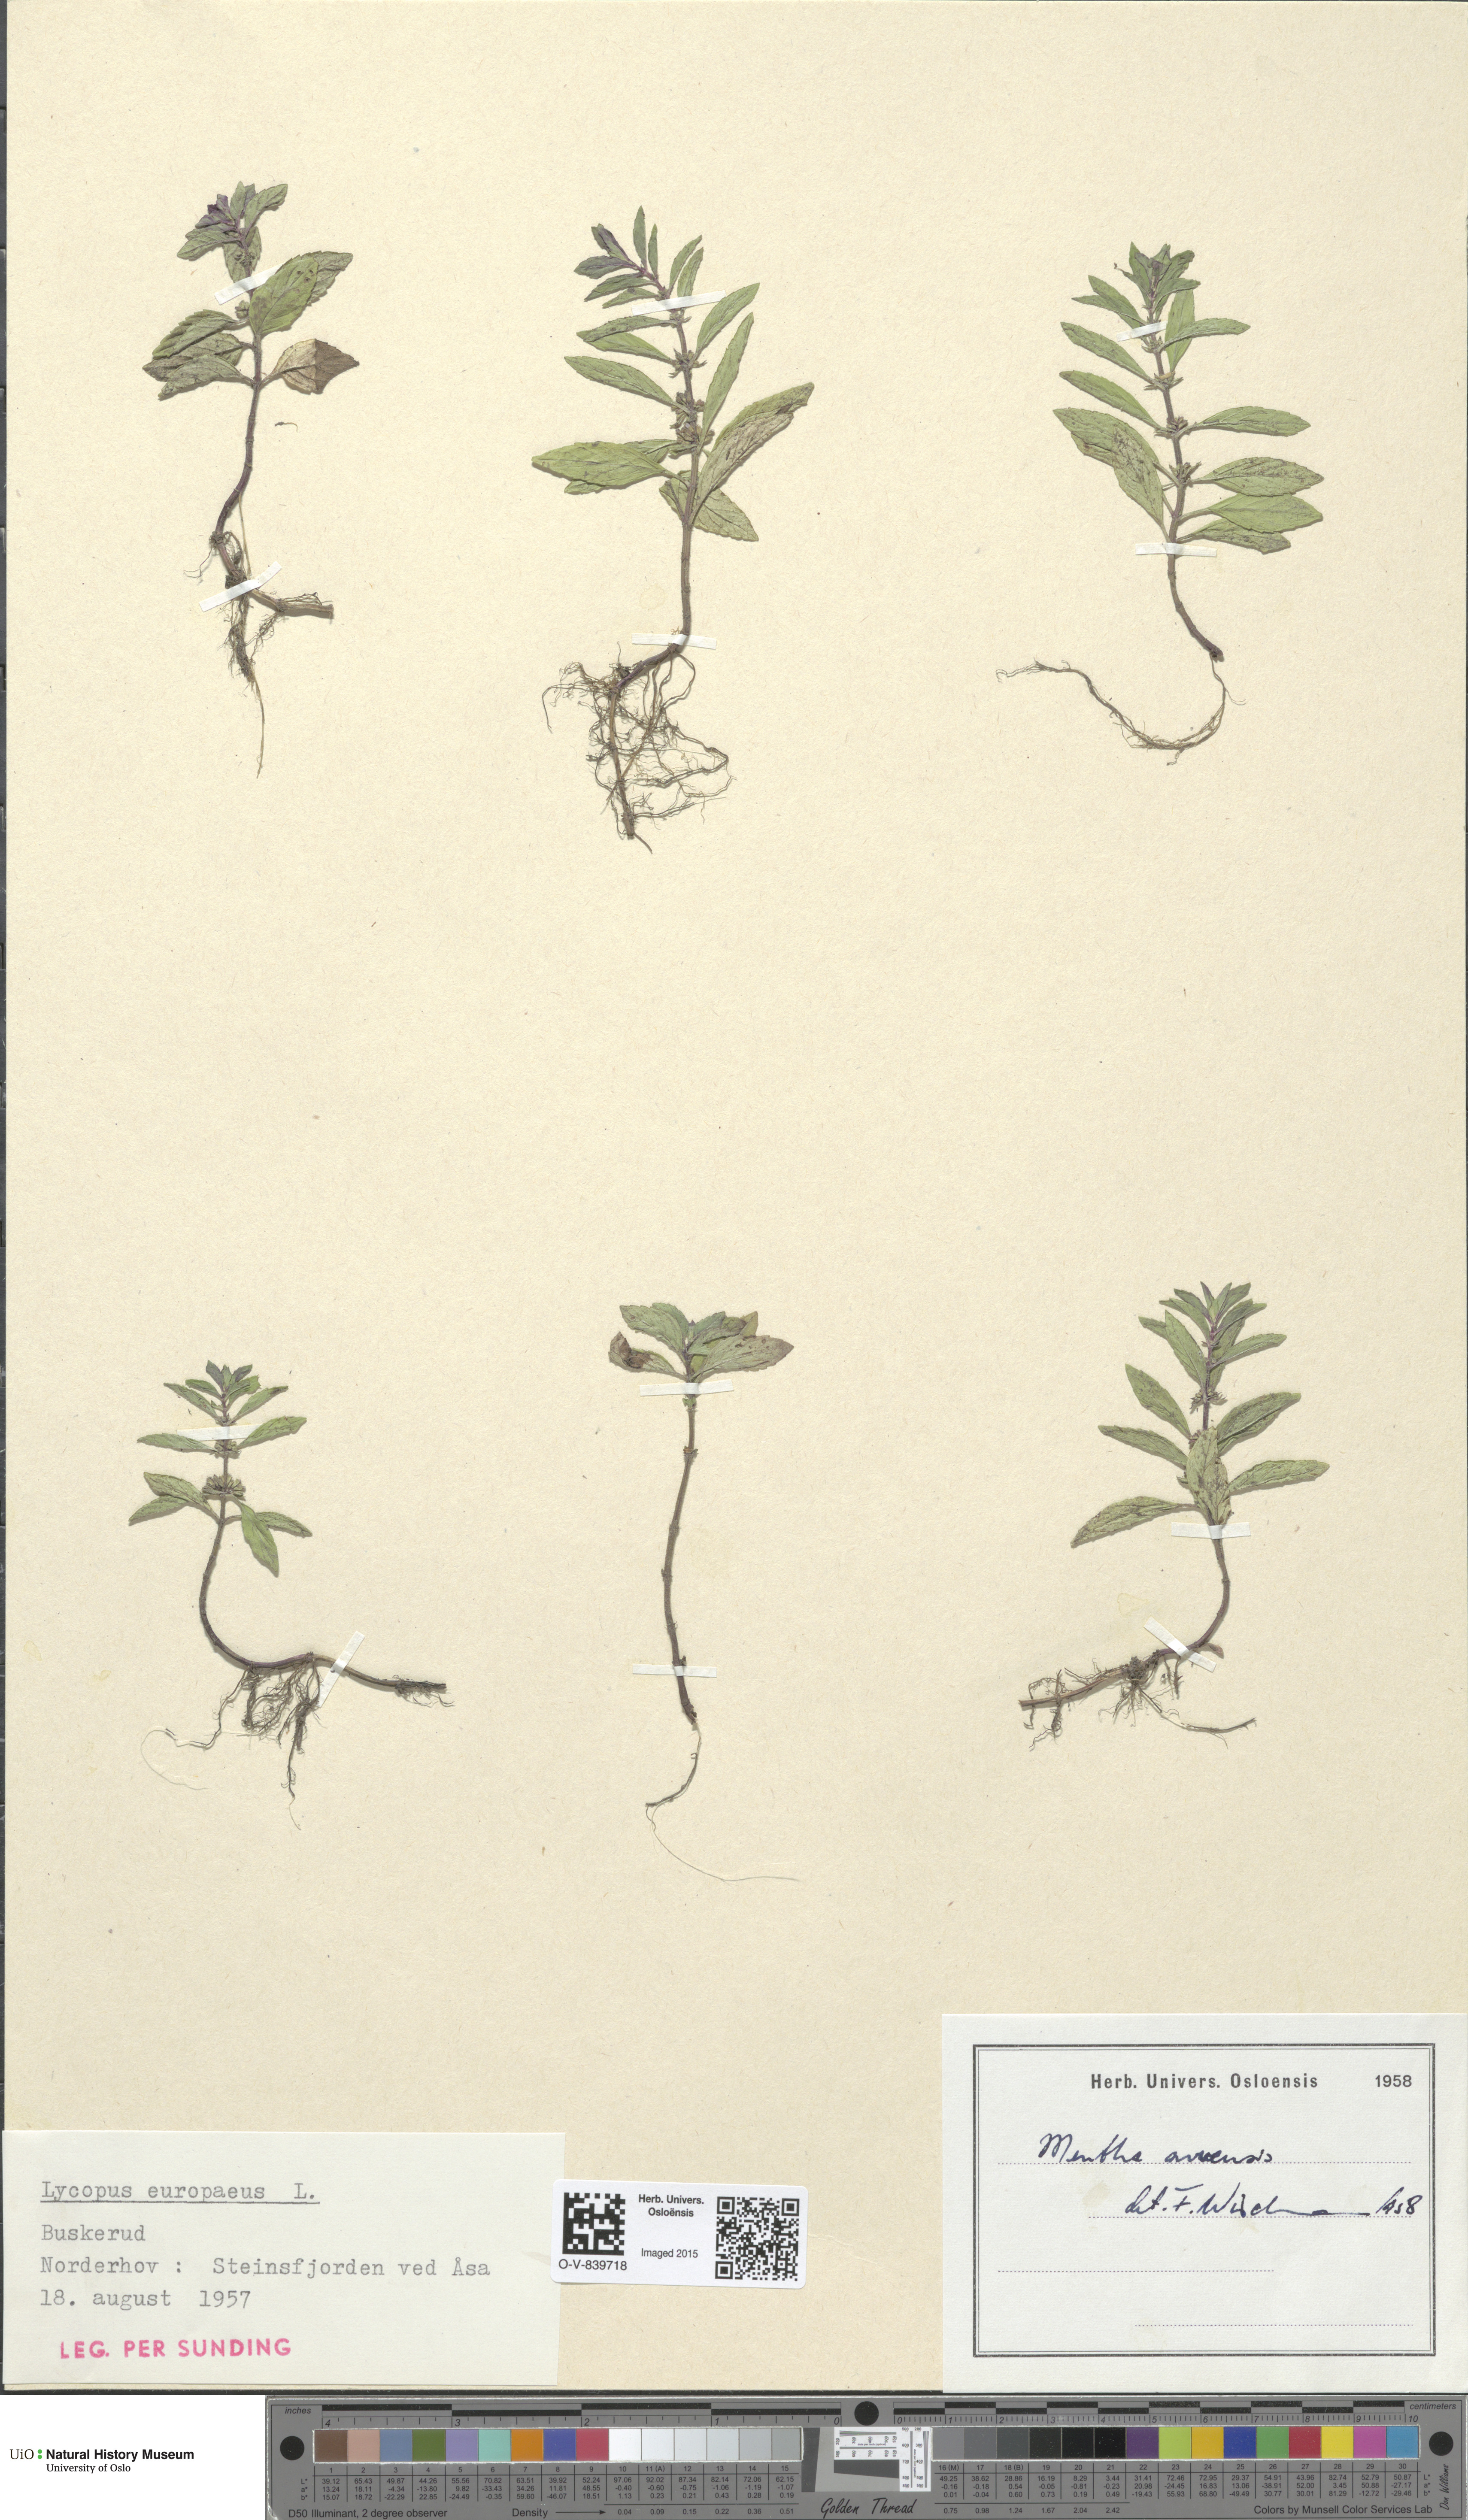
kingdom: Plantae
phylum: Tracheophyta
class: Magnoliopsida
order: Lamiales
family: Lamiaceae
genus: Mentha
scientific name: Mentha arvensis
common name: Corn mint
